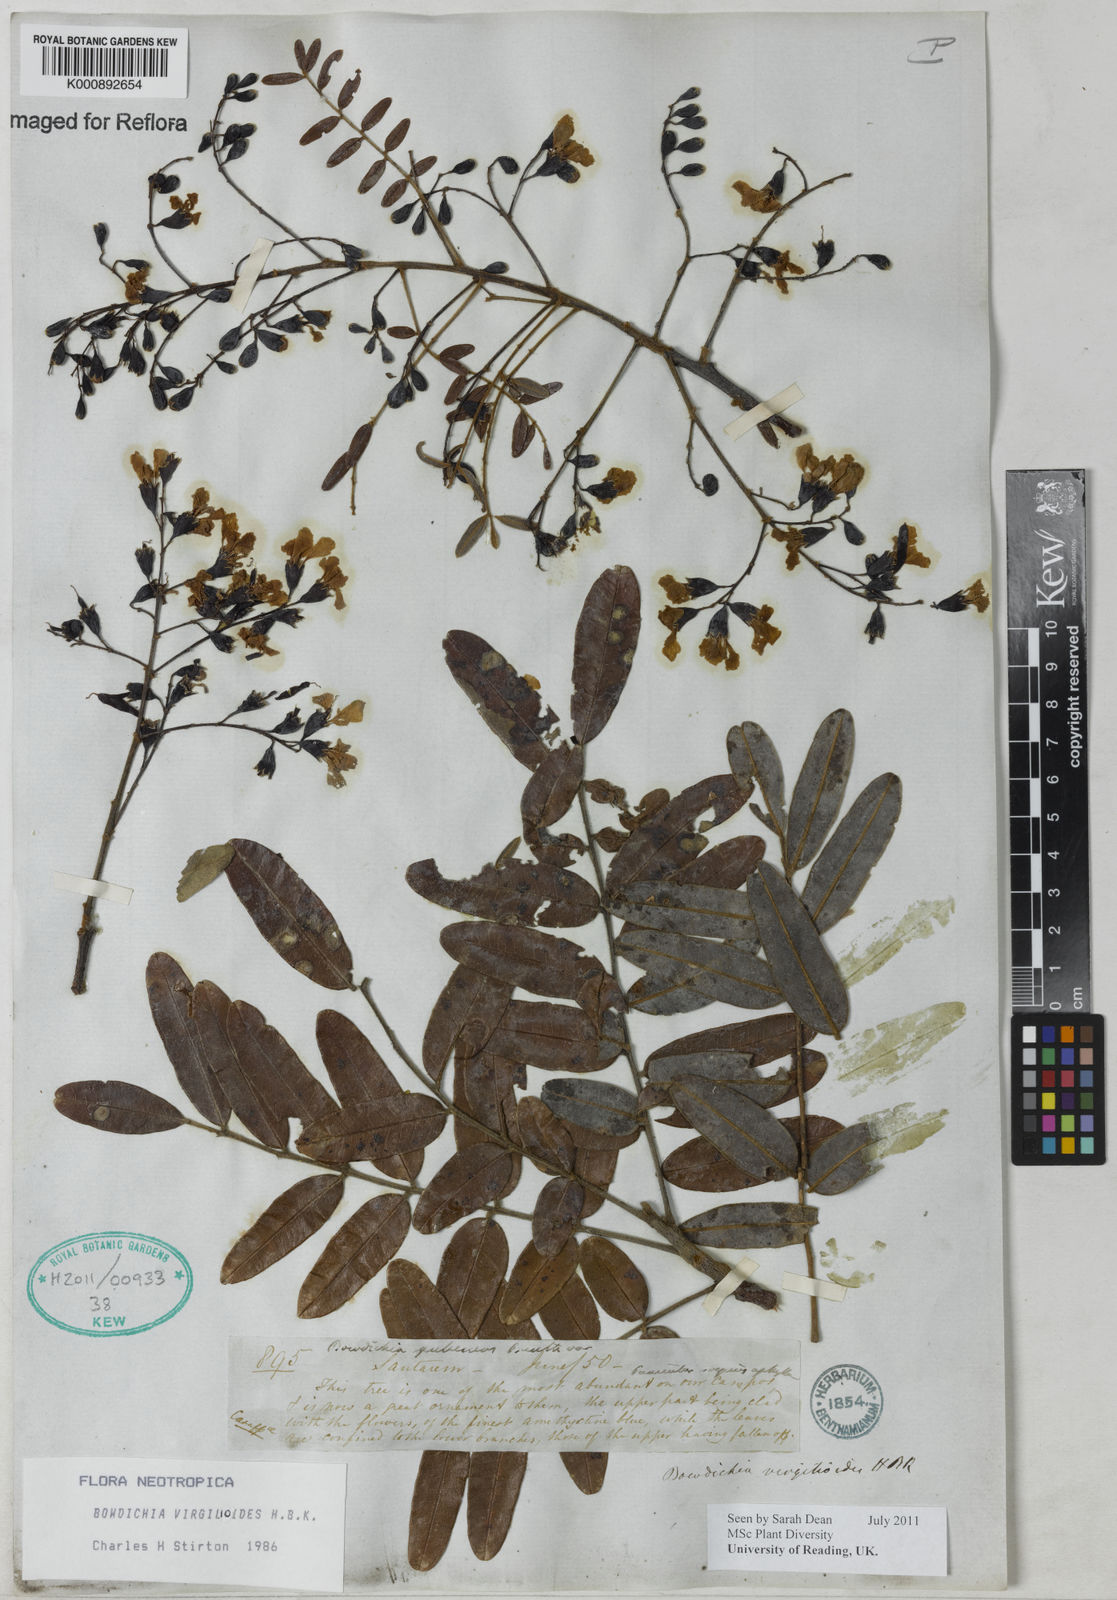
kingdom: Plantae
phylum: Tracheophyta
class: Magnoliopsida
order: Fabales
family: Fabaceae
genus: Bowdichia
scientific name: Bowdichia virgilioides
